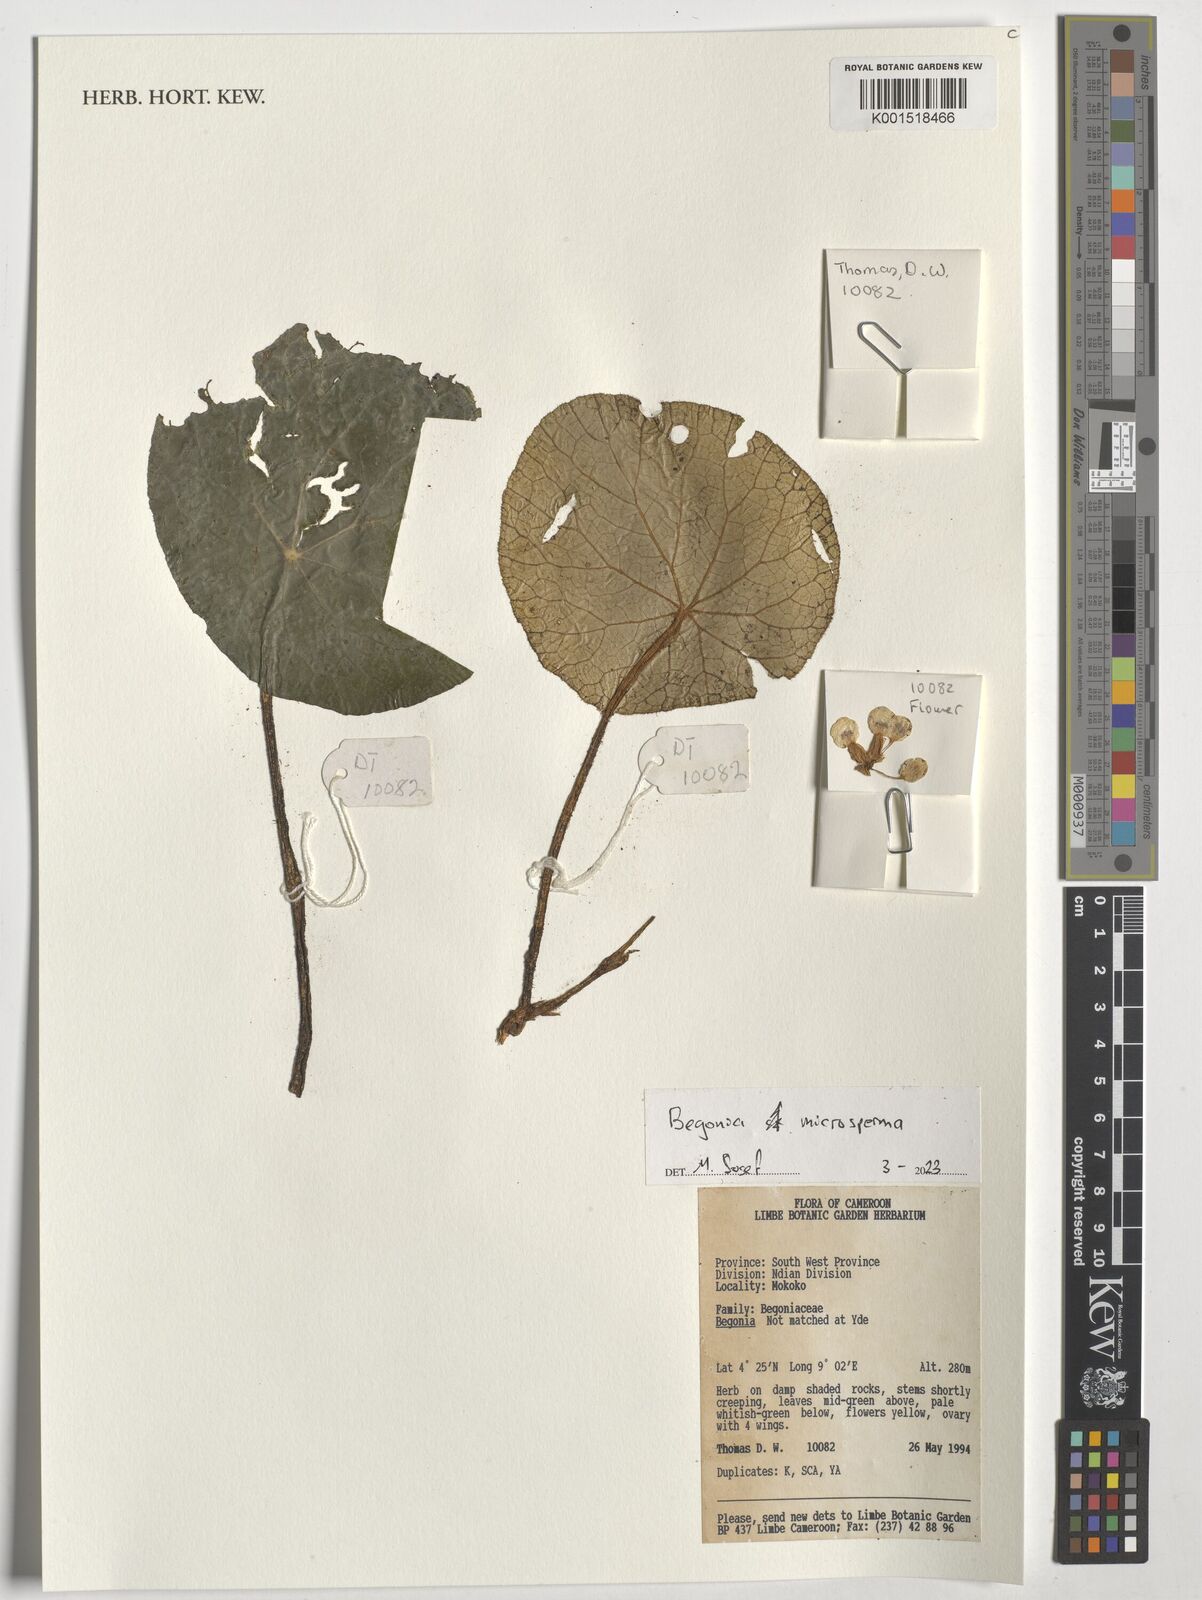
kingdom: Plantae
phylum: Tracheophyta
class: Magnoliopsida
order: Cucurbitales
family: Begoniaceae
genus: Begonia
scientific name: Begonia microsperma
